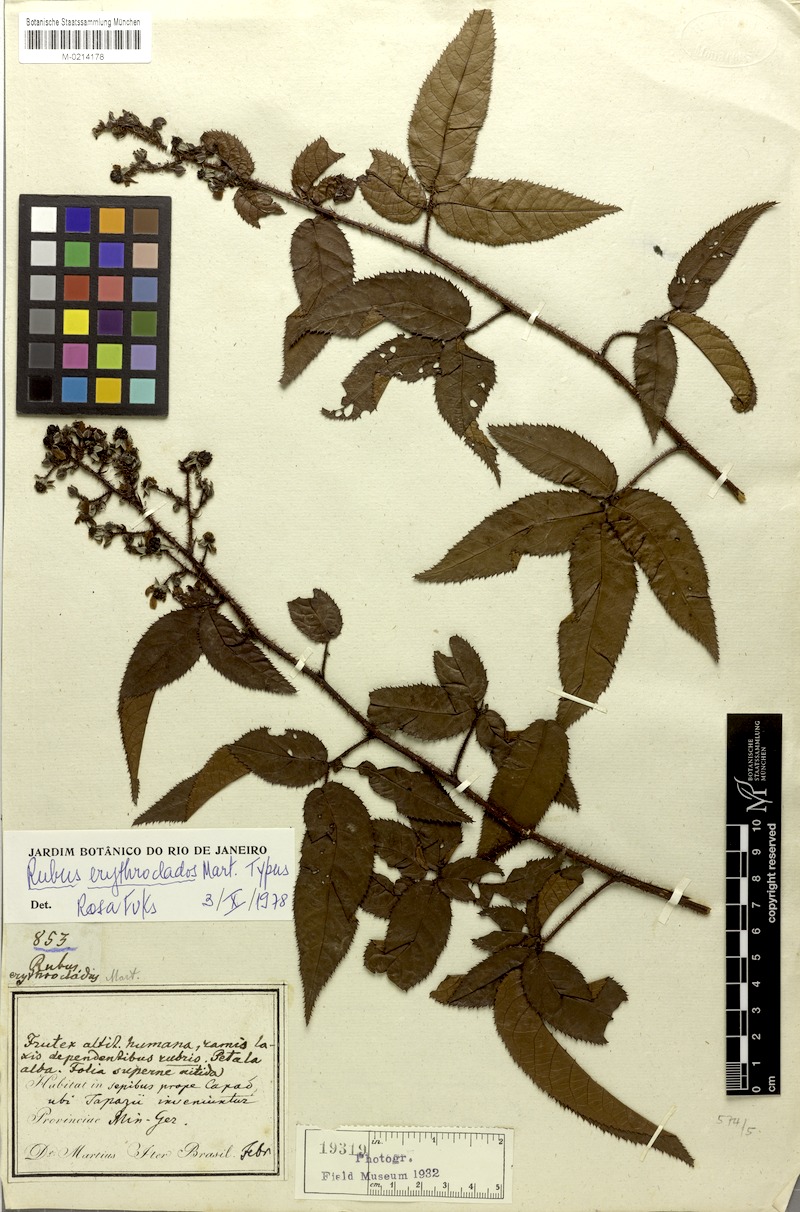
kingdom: Plantae
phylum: Tracheophyta
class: Magnoliopsida
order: Rosales
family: Rosaceae
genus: Rubus
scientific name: Rubus erythroclados
